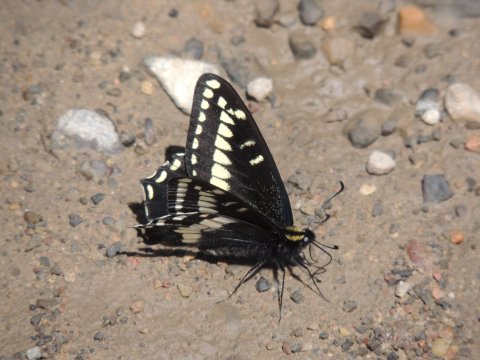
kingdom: Animalia
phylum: Arthropoda
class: Insecta
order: Lepidoptera
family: Papilionidae
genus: Papilio
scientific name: Papilio indra
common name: Indra Swallowtail
